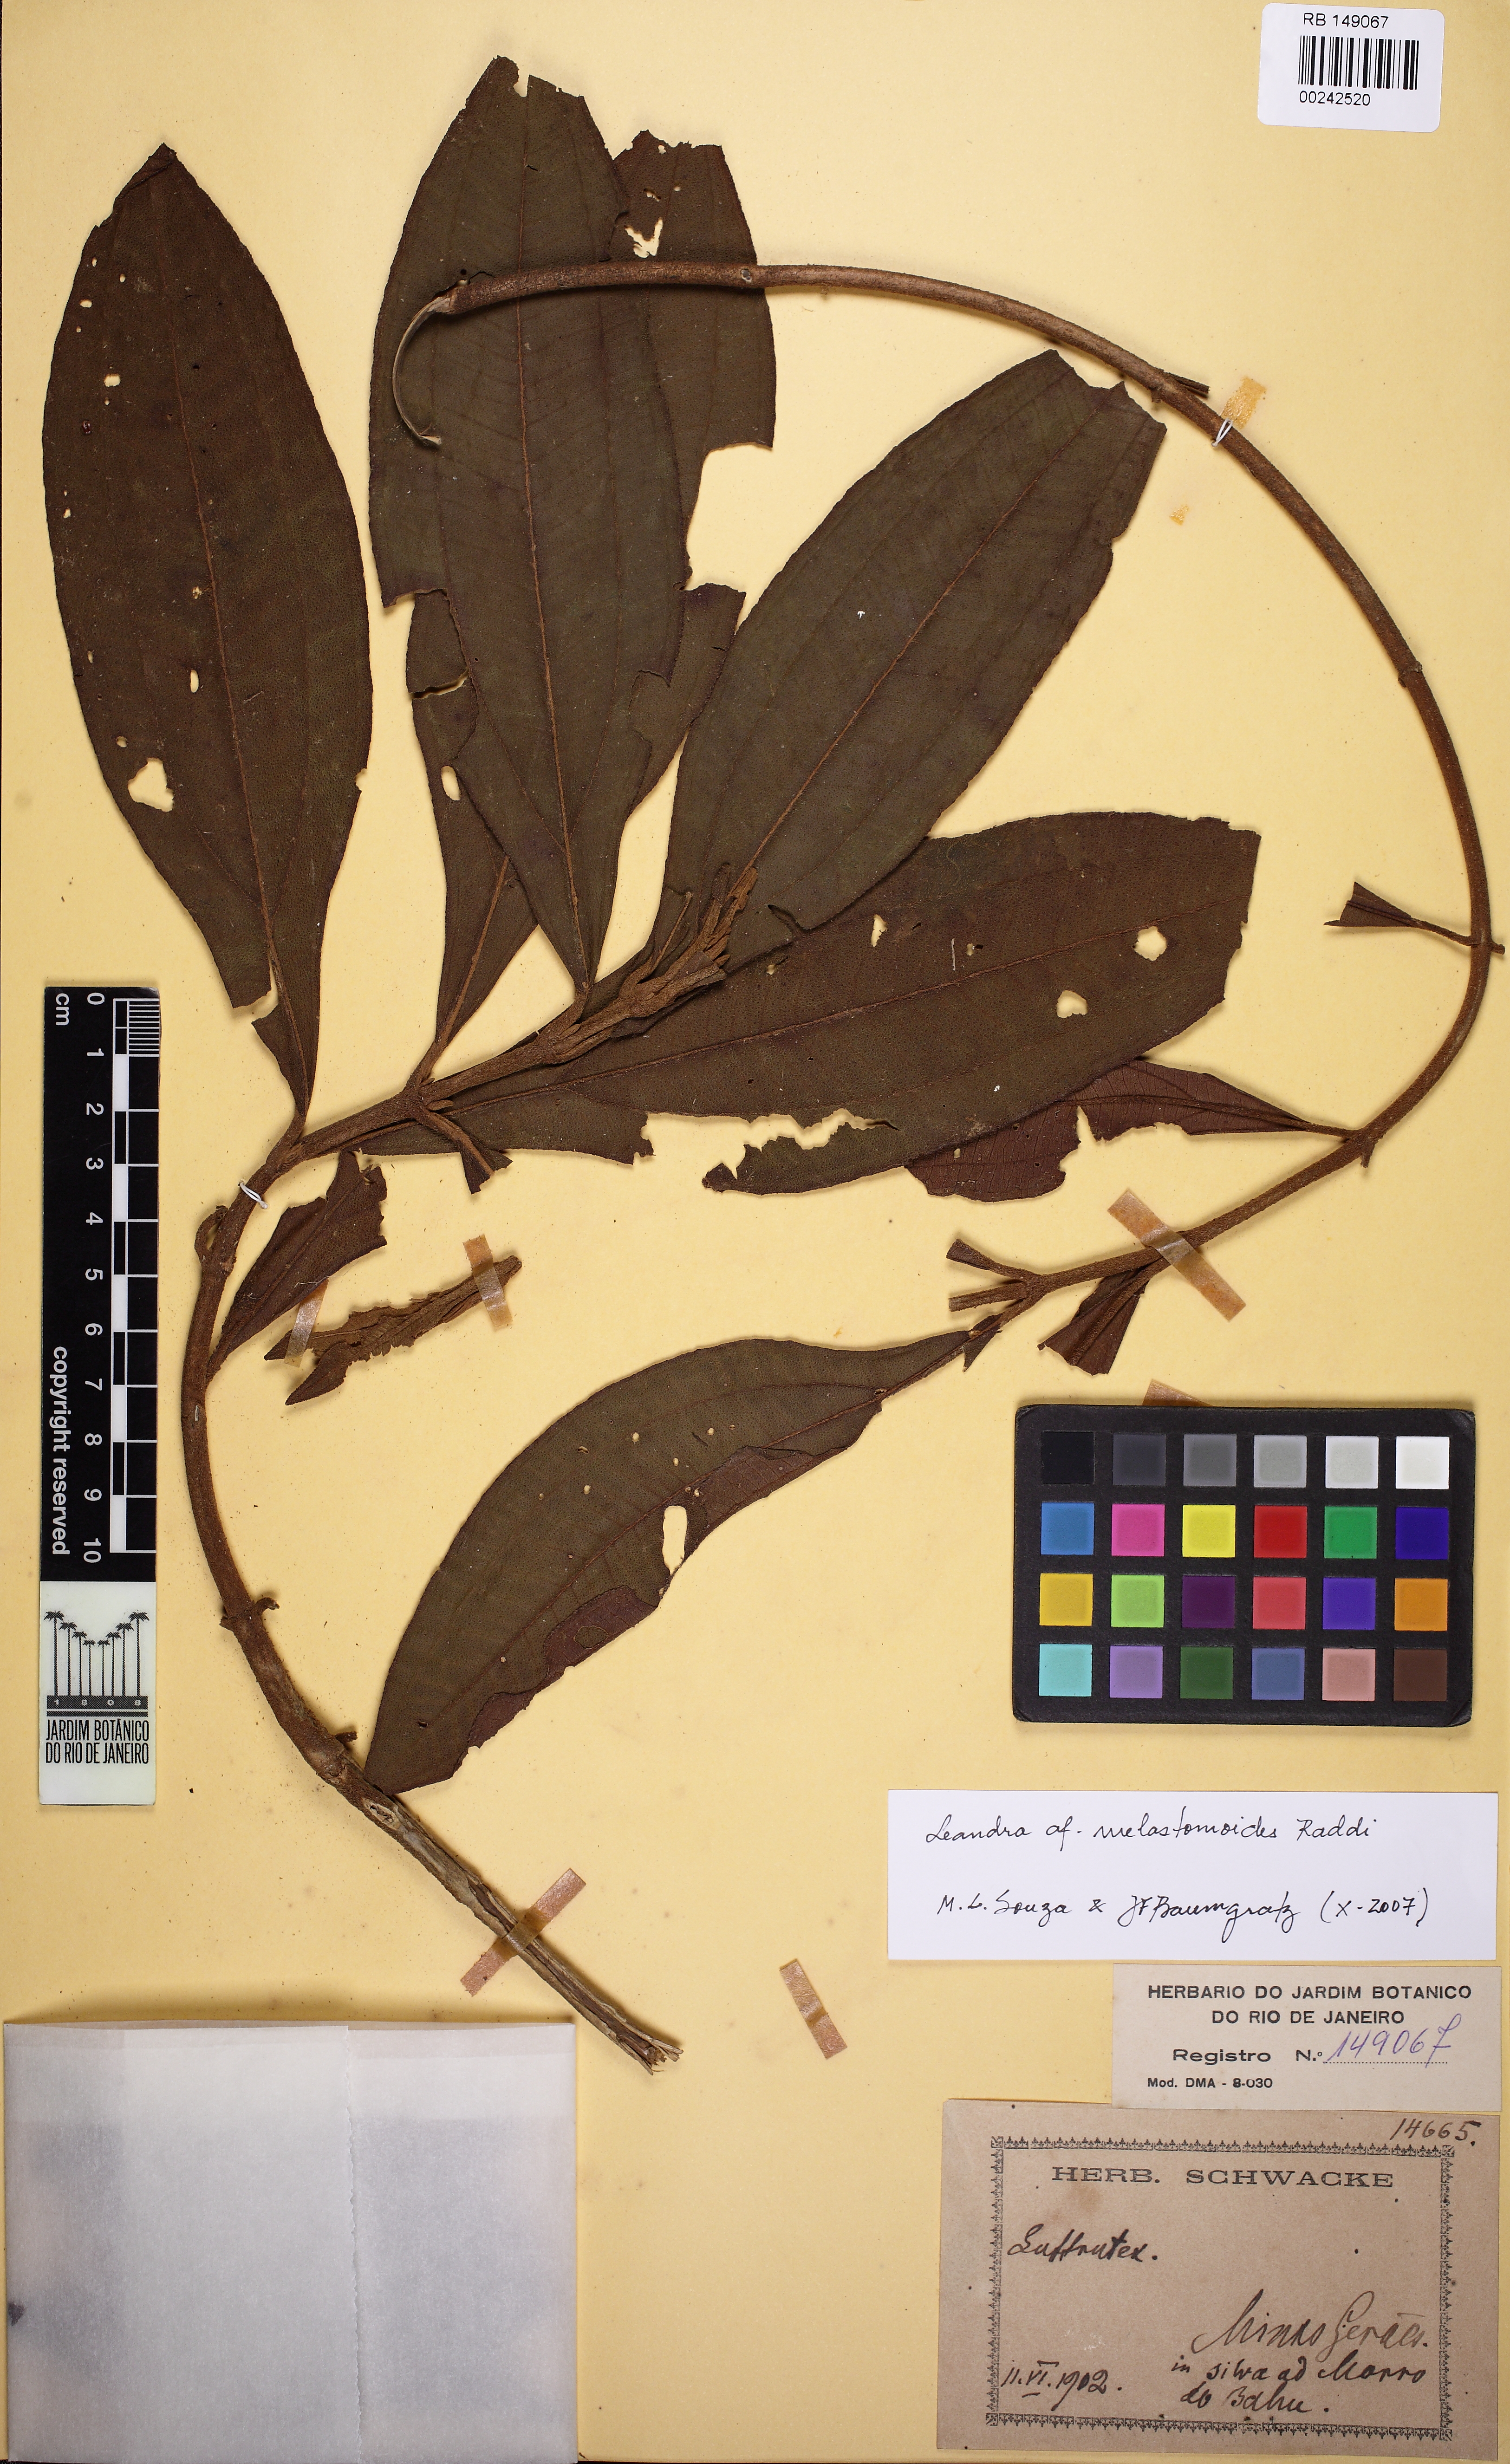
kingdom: Plantae
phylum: Tracheophyta
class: Magnoliopsida
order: Myrtales
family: Melastomataceae
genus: Miconia
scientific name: Miconia melastomoides
